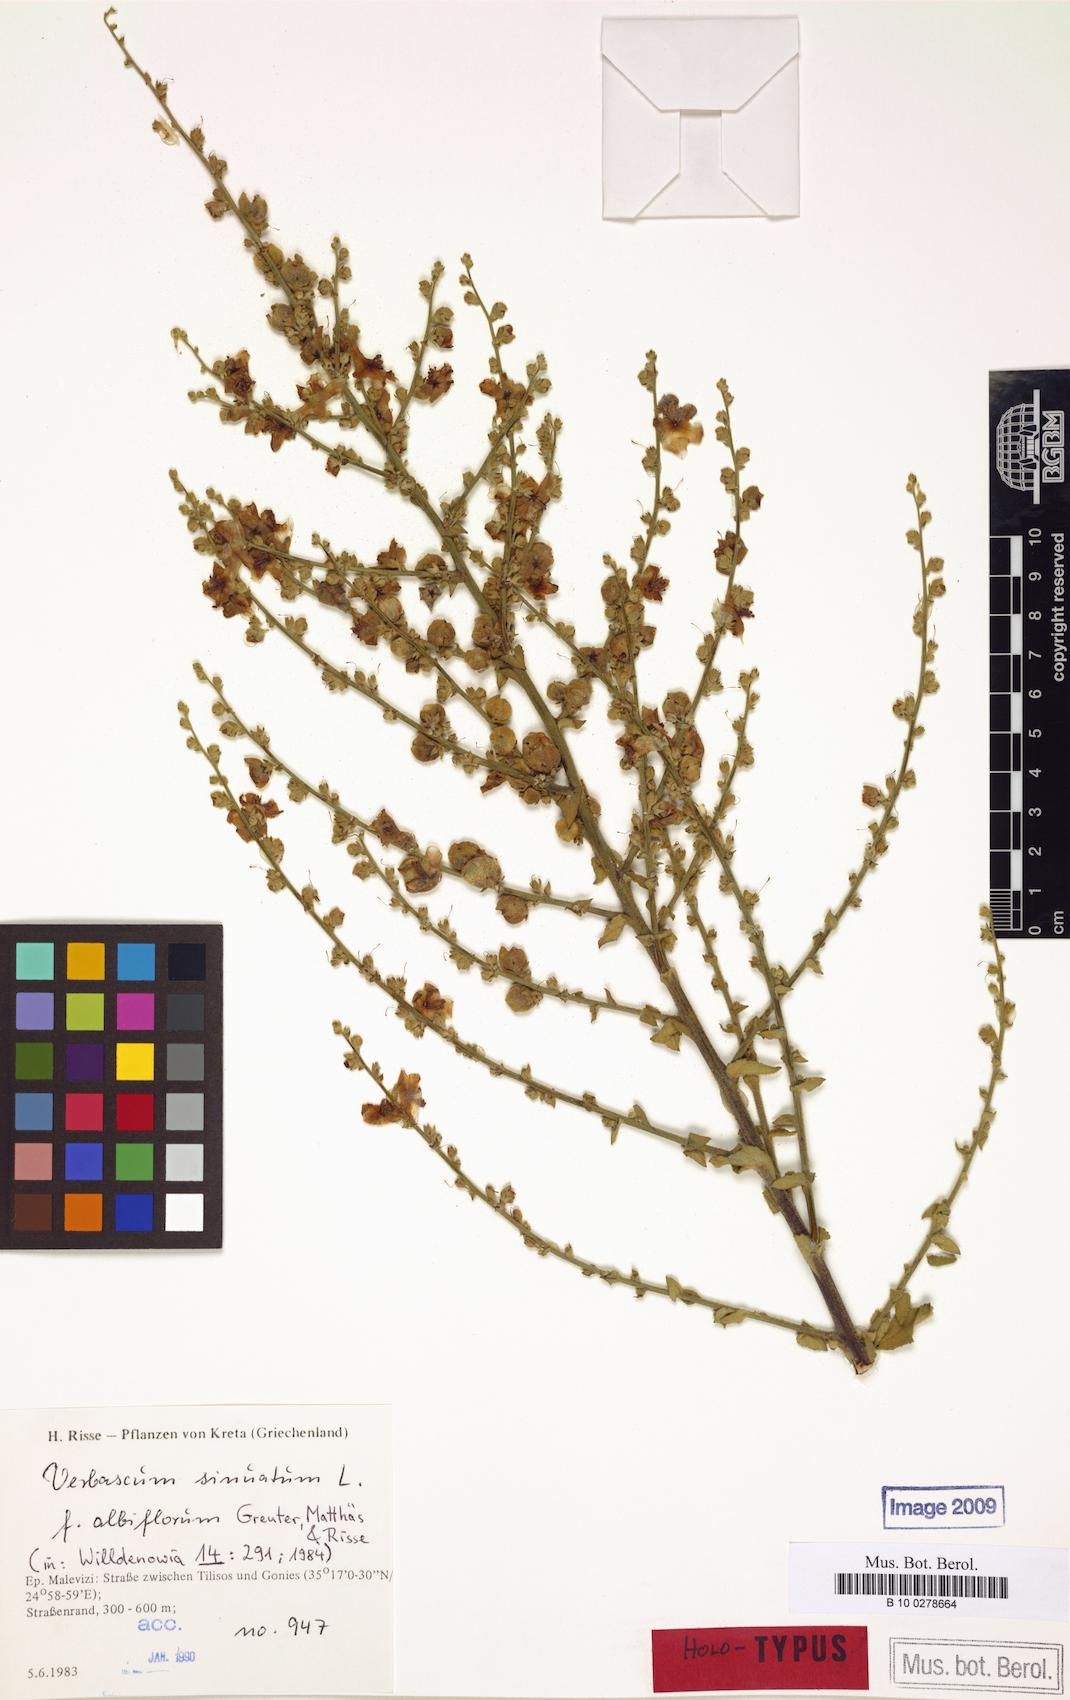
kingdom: Plantae
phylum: Tracheophyta
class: Magnoliopsida
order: Lamiales
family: Scrophulariaceae
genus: Verbascum
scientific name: Verbascum sinuatum
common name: Wavyleaf mullein
